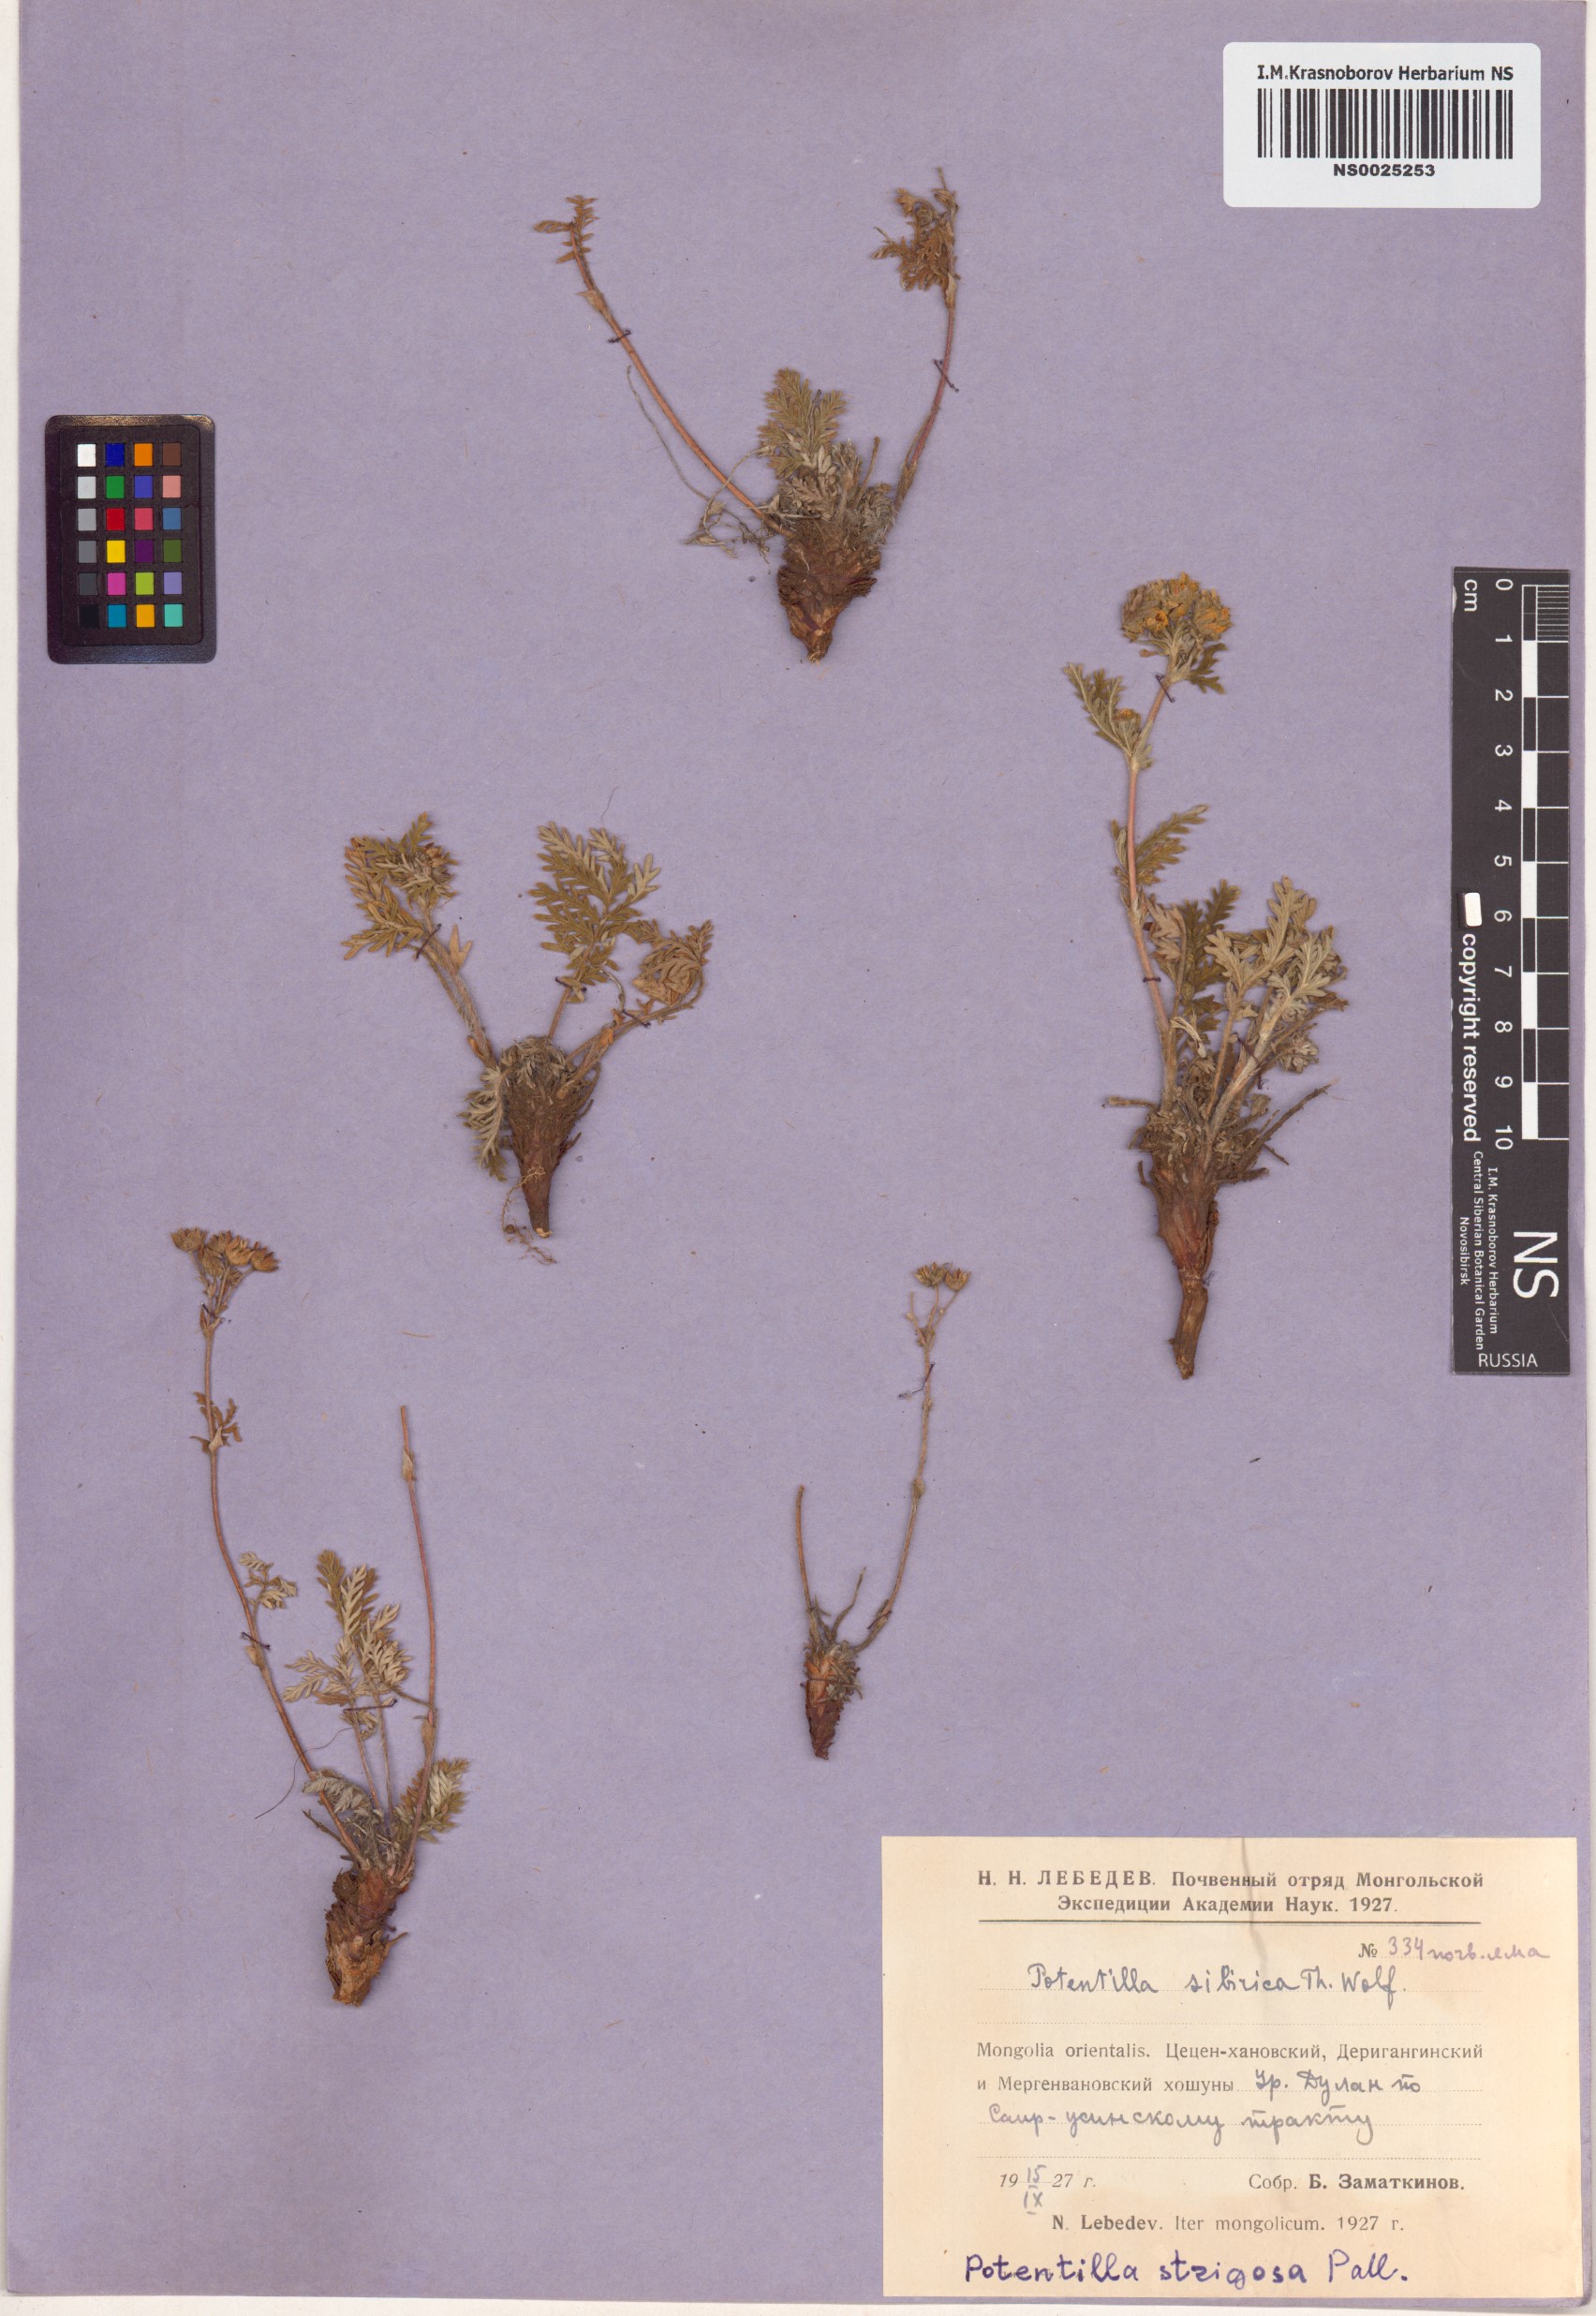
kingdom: Plantae
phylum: Tracheophyta
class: Magnoliopsida
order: Rosales
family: Rosaceae
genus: Potentilla
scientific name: Potentilla pensylvanica
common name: Pennsylvania cinquefoil
